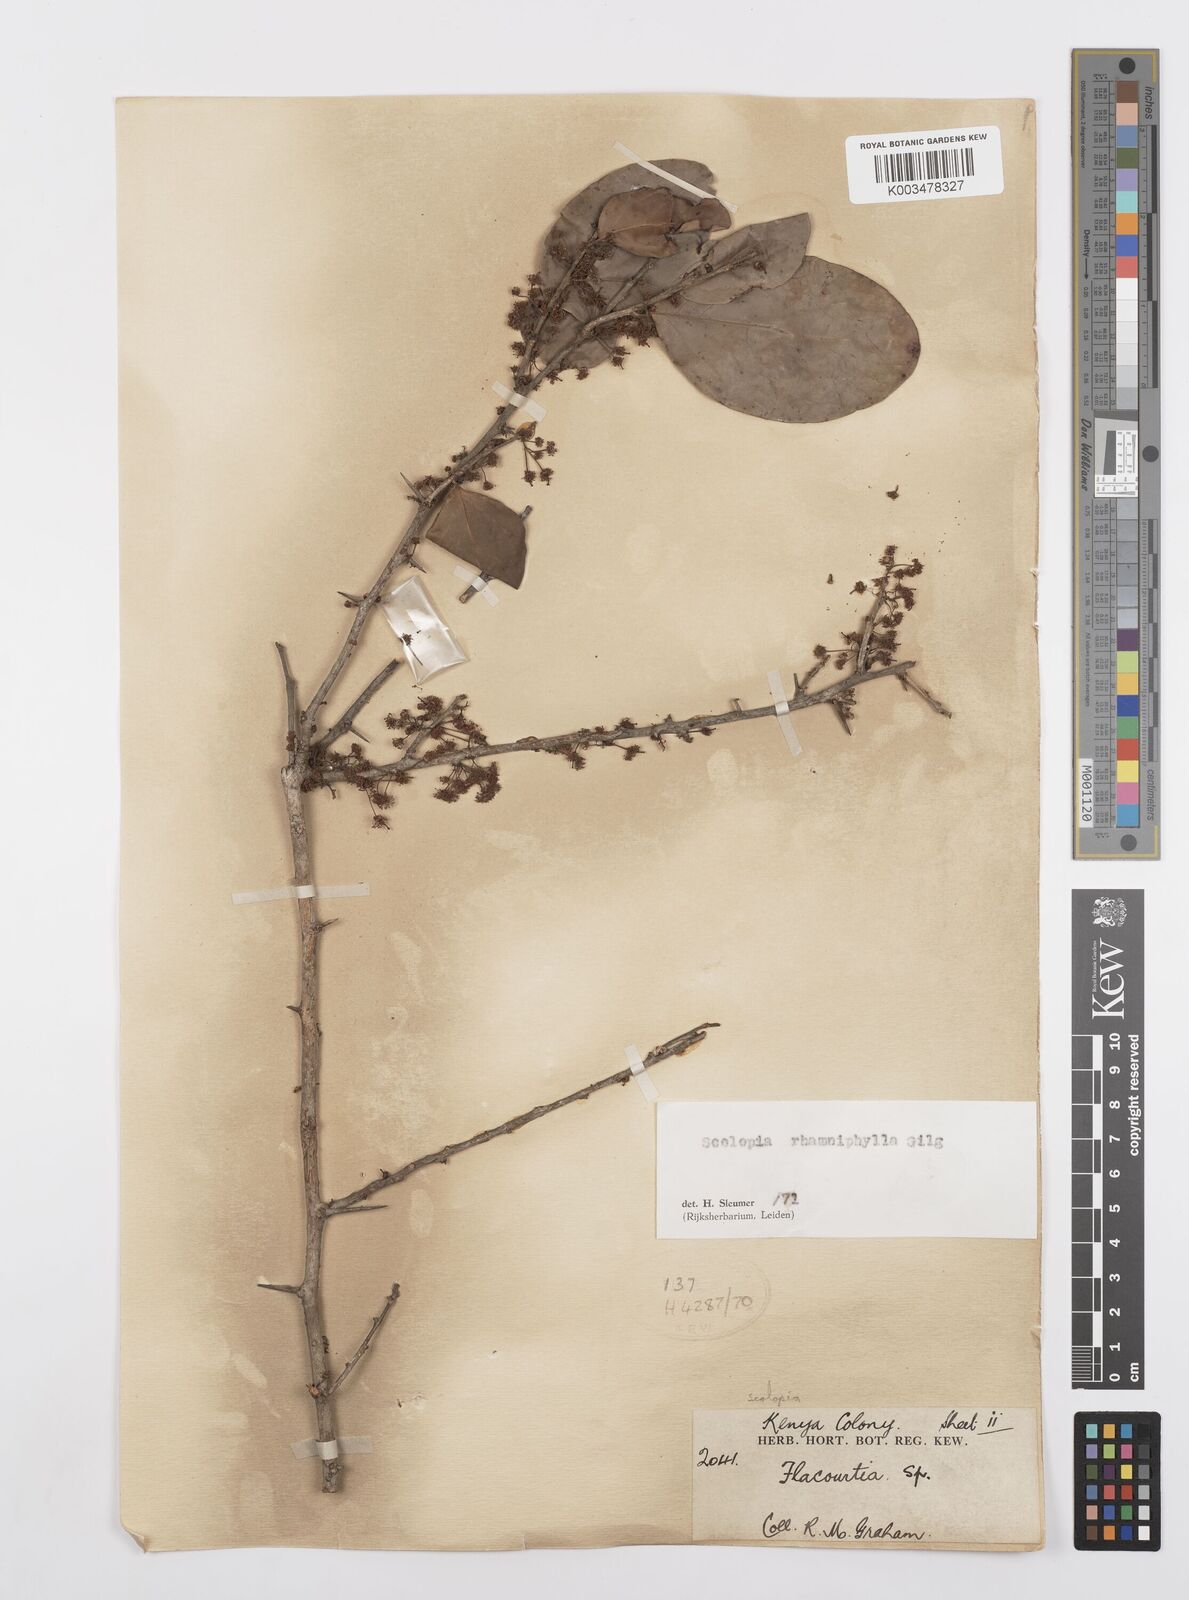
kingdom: Plantae
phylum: Tracheophyta
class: Magnoliopsida
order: Malpighiales
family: Salicaceae
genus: Scolopia
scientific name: Scolopia rhamniphylla
